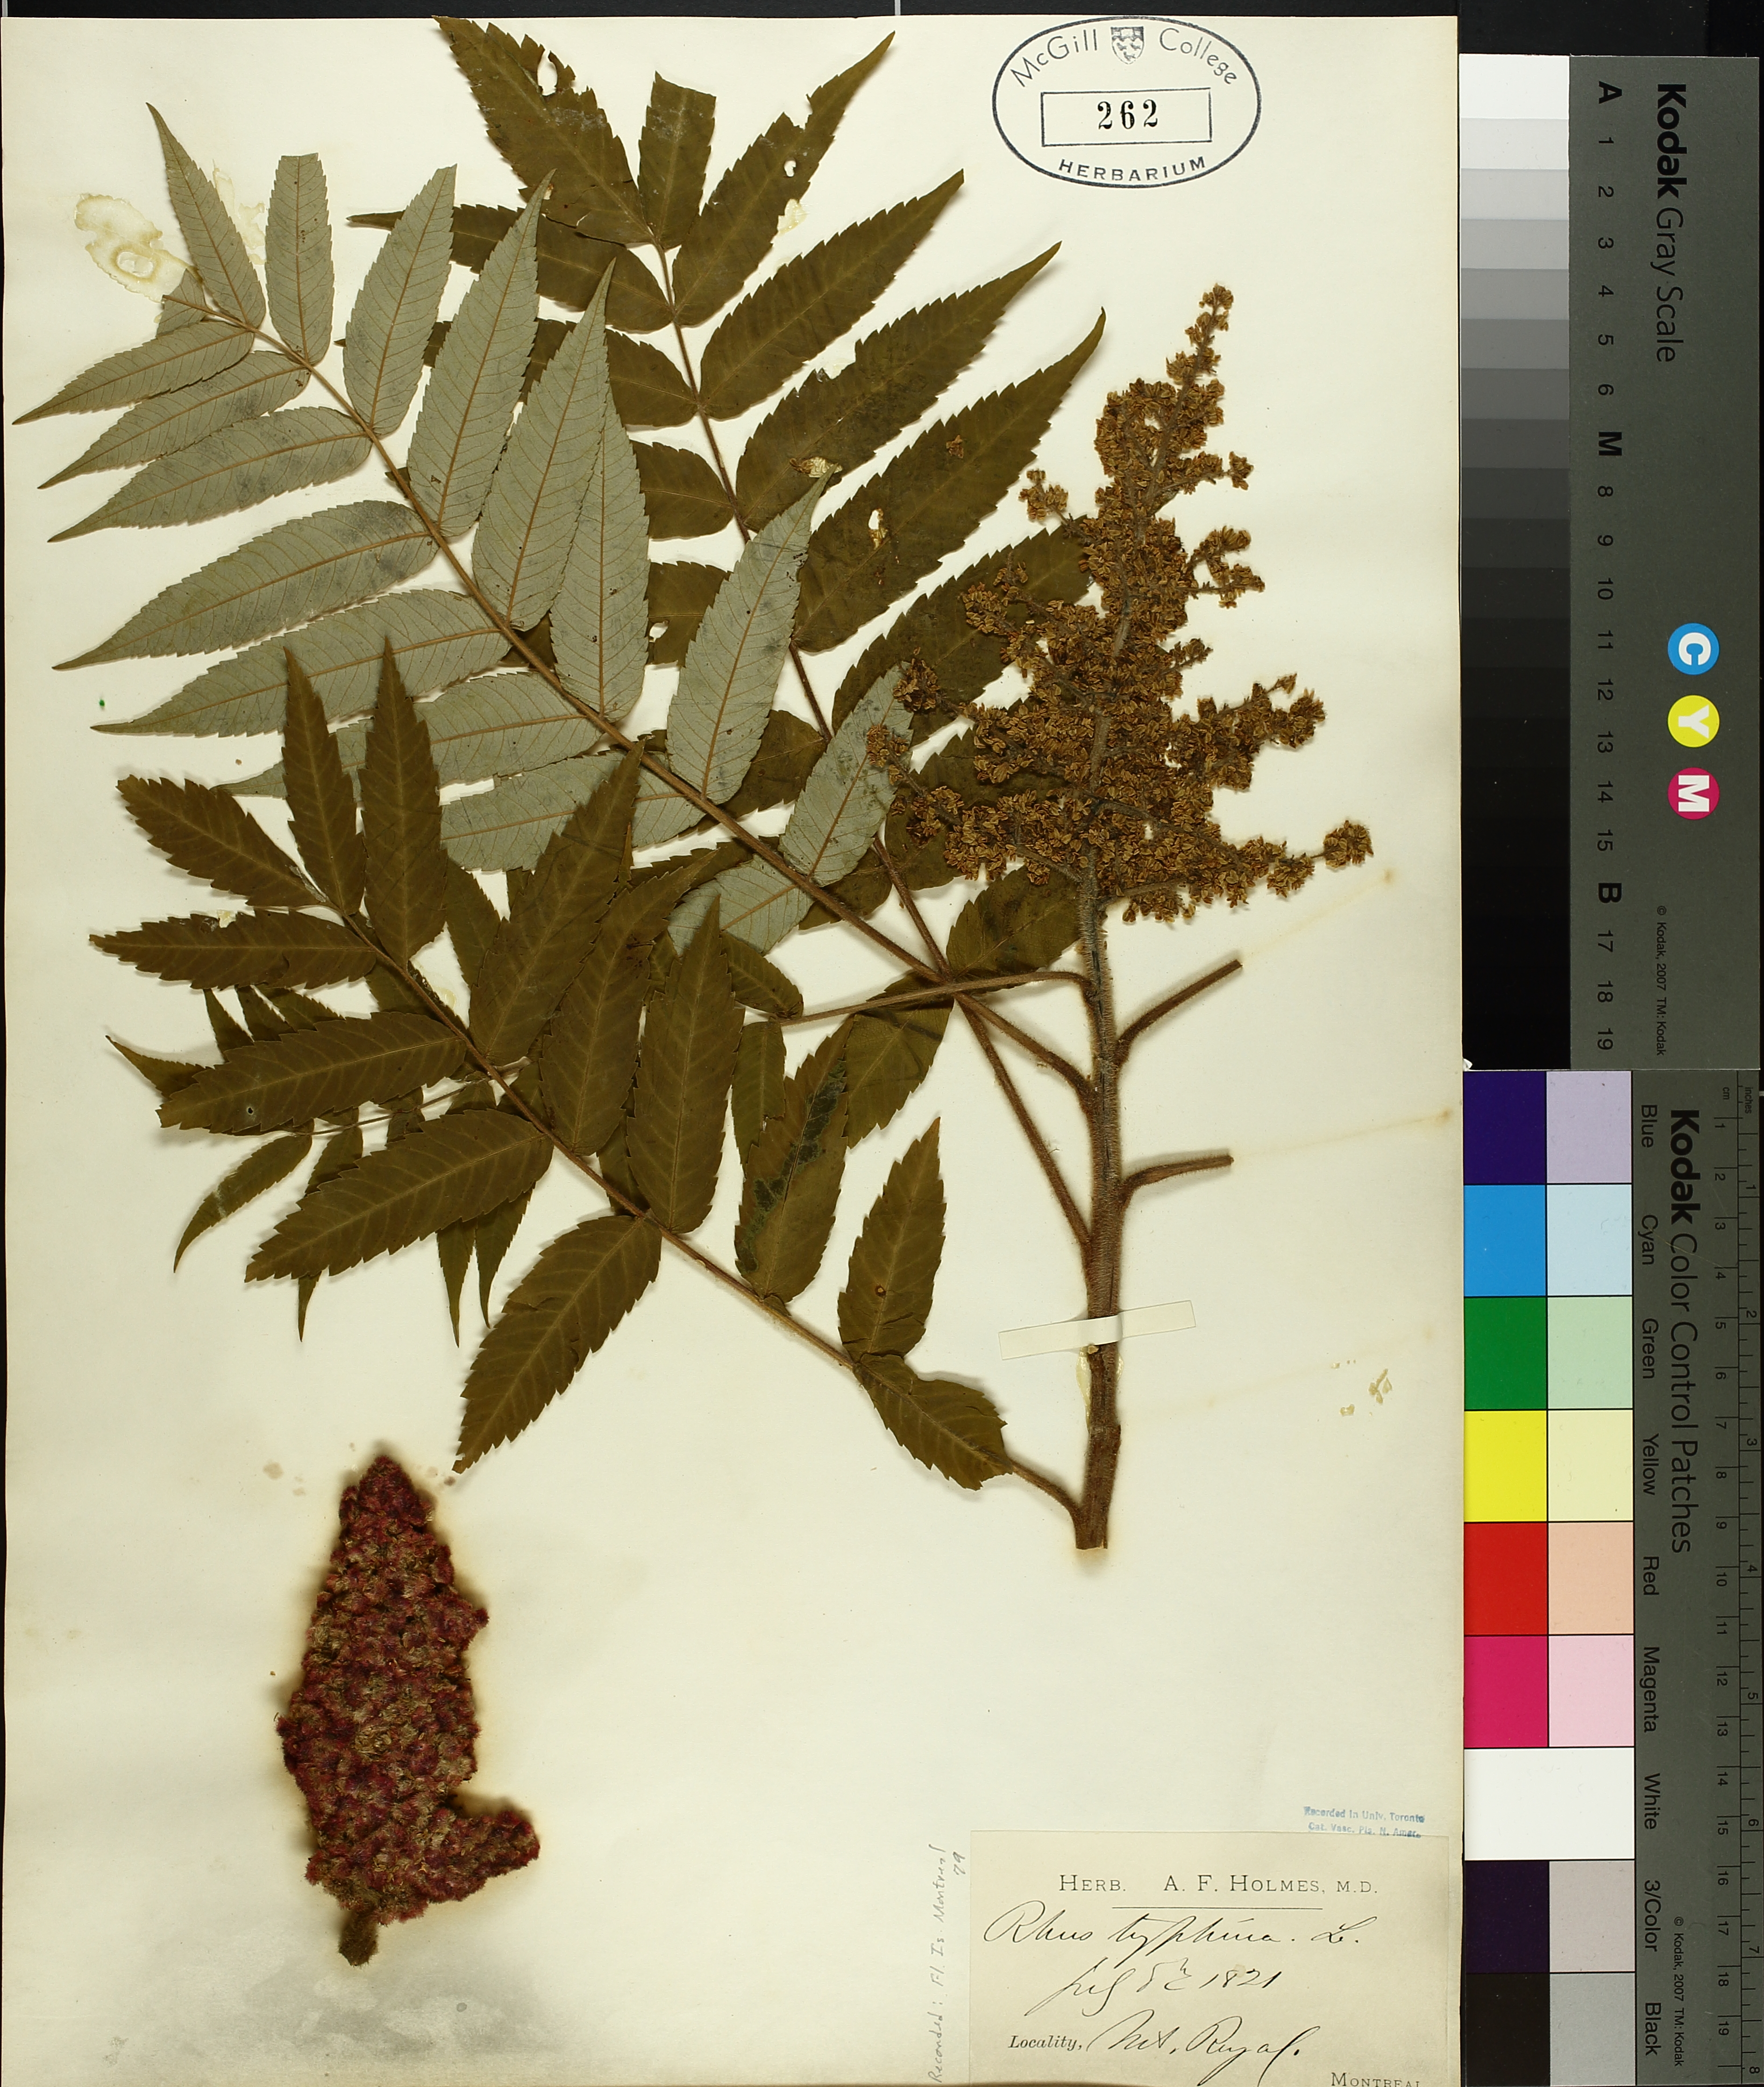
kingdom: Plantae
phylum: Tracheophyta
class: Magnoliopsida
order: Sapindales
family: Anacardiaceae
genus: Rhus
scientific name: Rhus typhina
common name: Staghorn sumac
